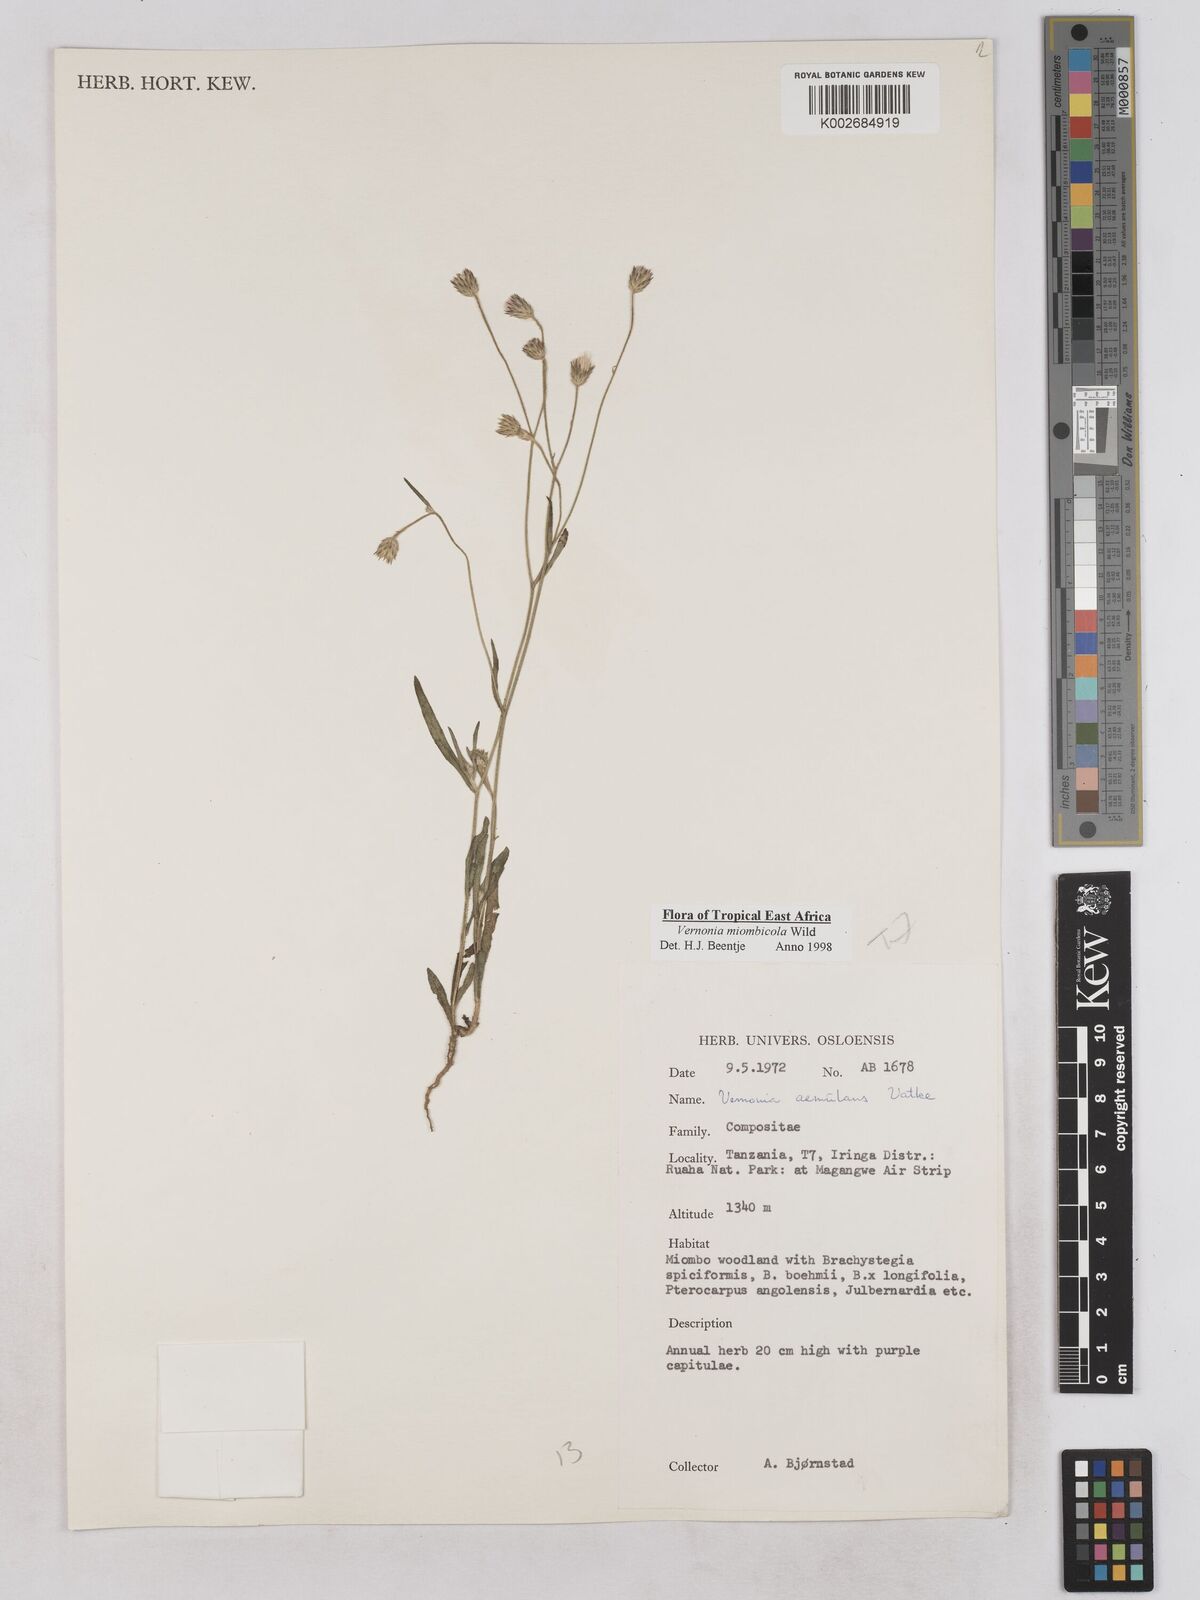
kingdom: Plantae
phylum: Tracheophyta
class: Magnoliopsida
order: Asterales
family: Asteraceae
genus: Vernonia
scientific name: Vernonia miombicola
